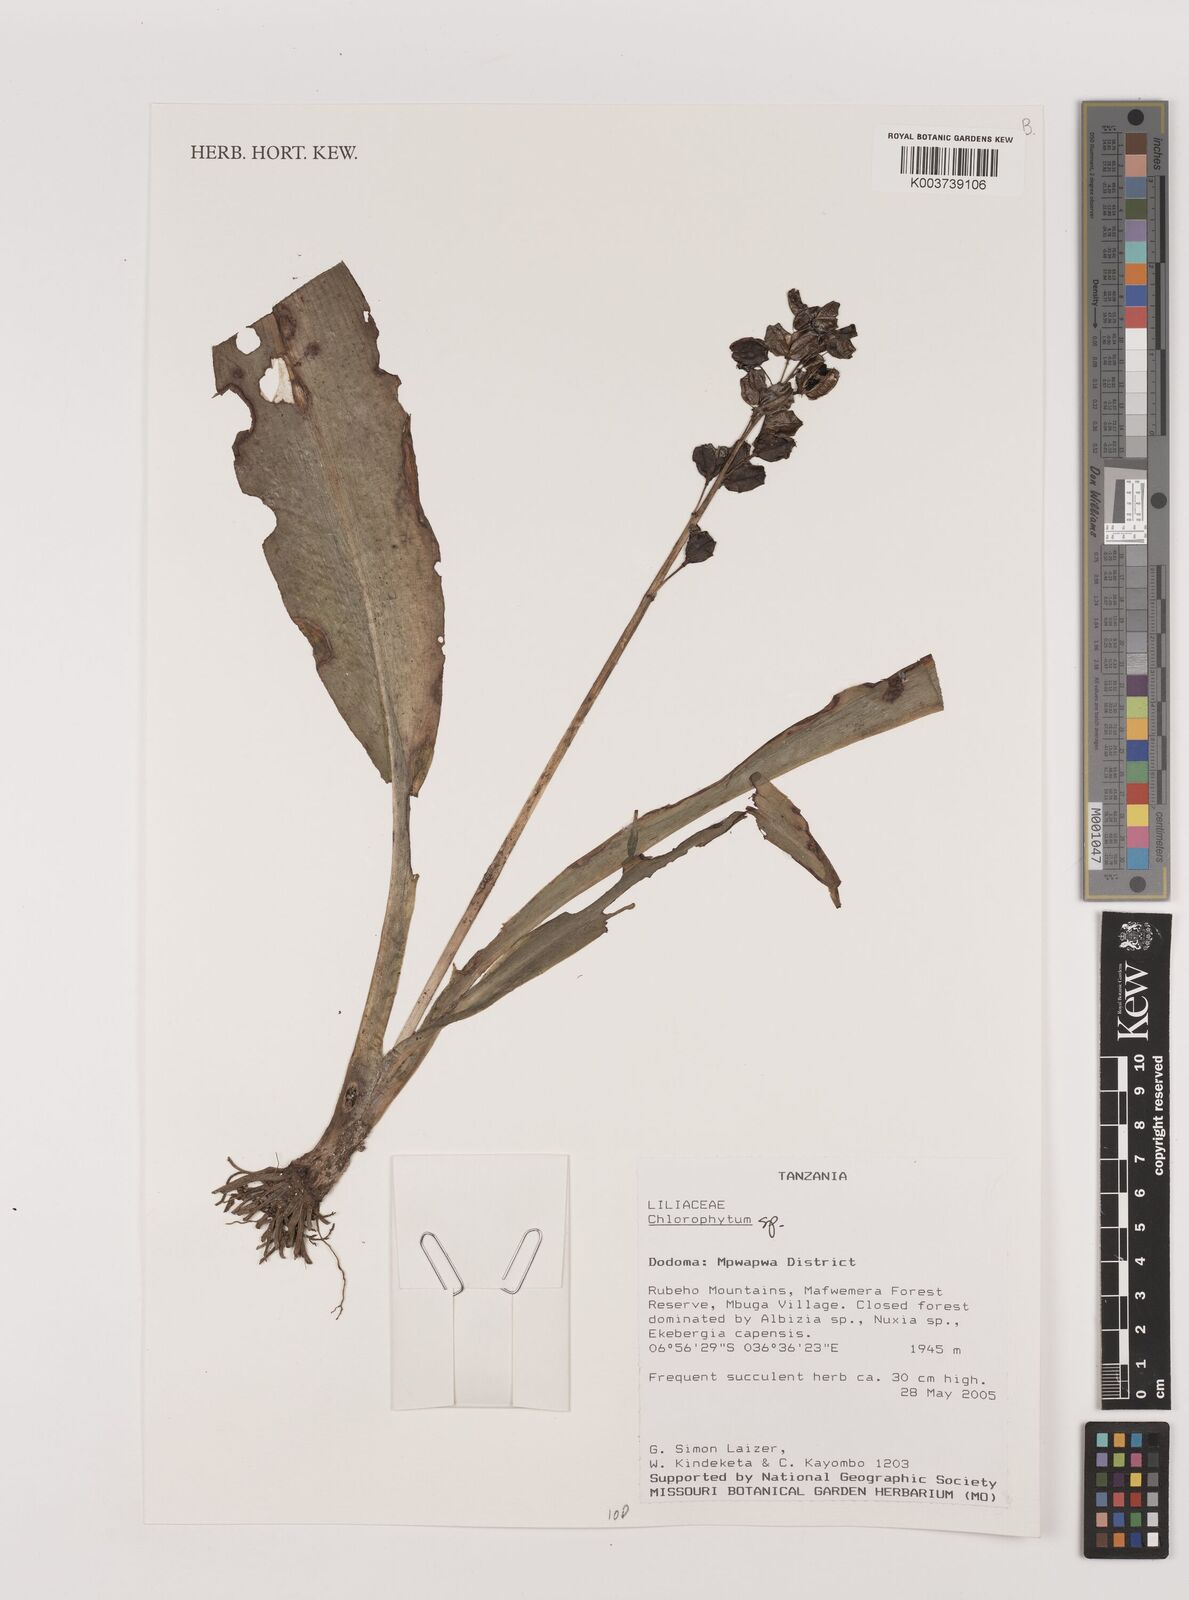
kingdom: Plantae
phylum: Tracheophyta
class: Liliopsida
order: Asparagales
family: Asparagaceae
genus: Chlorophytum
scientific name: Chlorophytum
